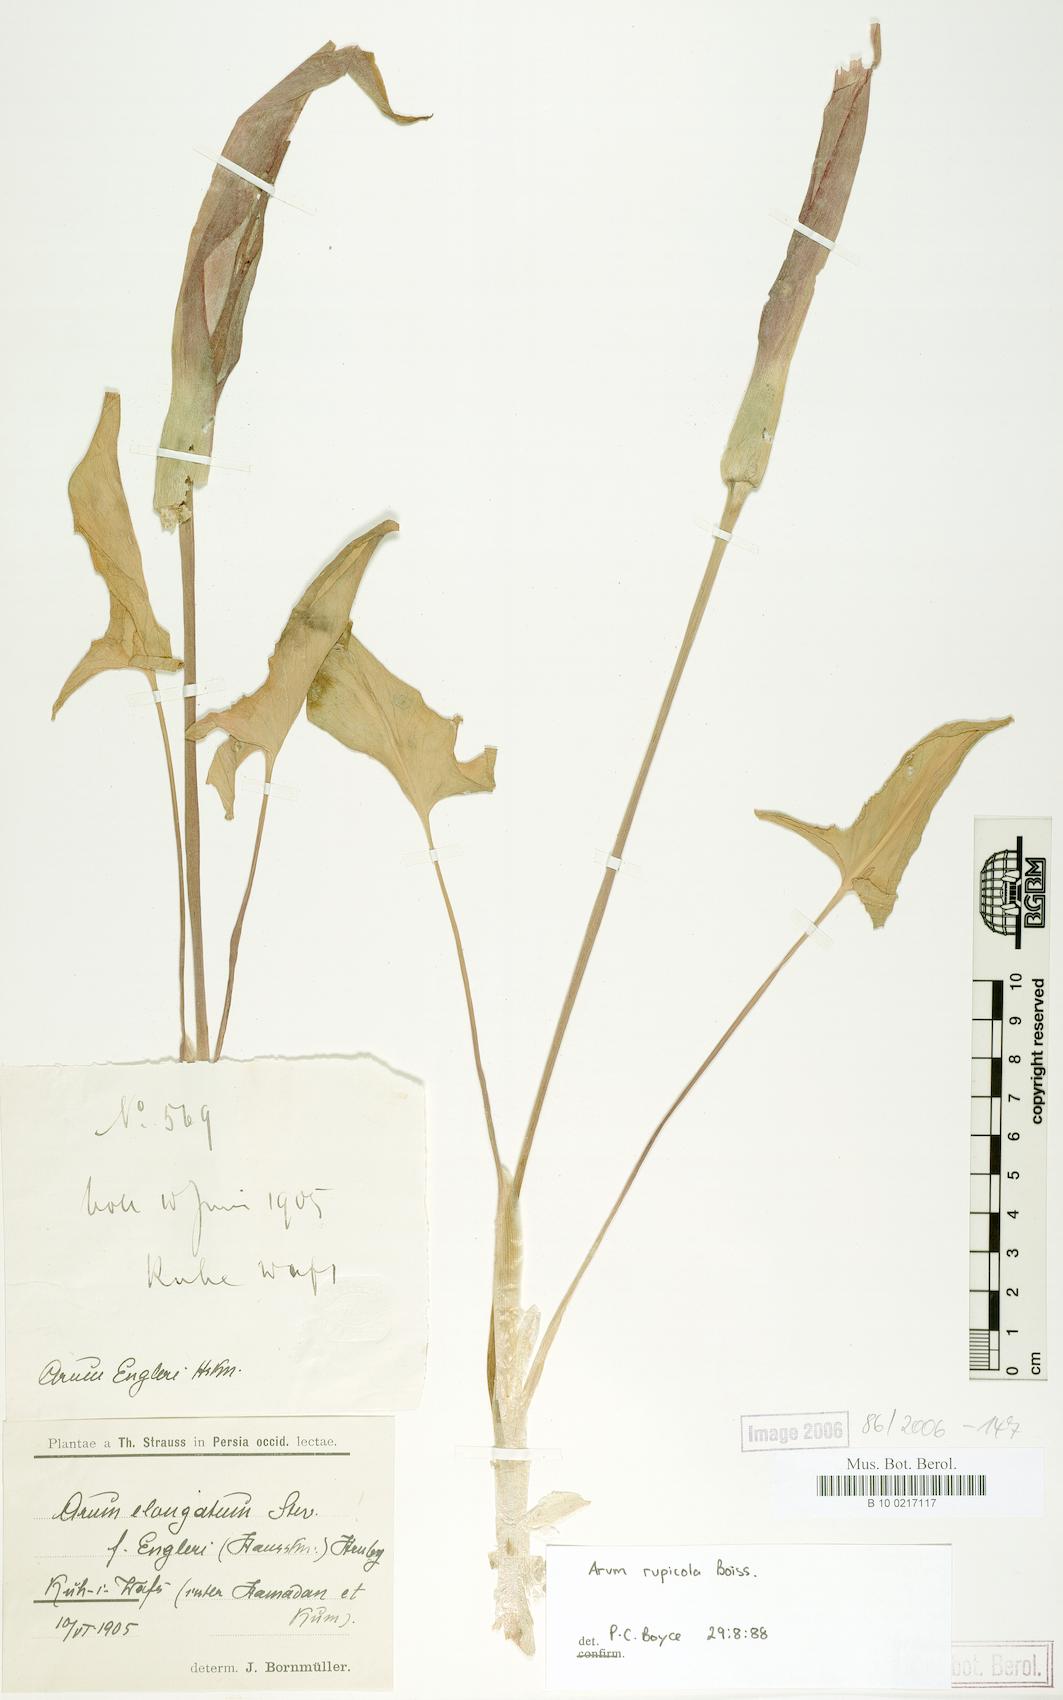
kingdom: Plantae
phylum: Tracheophyta
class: Liliopsida
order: Alismatales
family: Araceae
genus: Arum
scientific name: Arum rupicola
